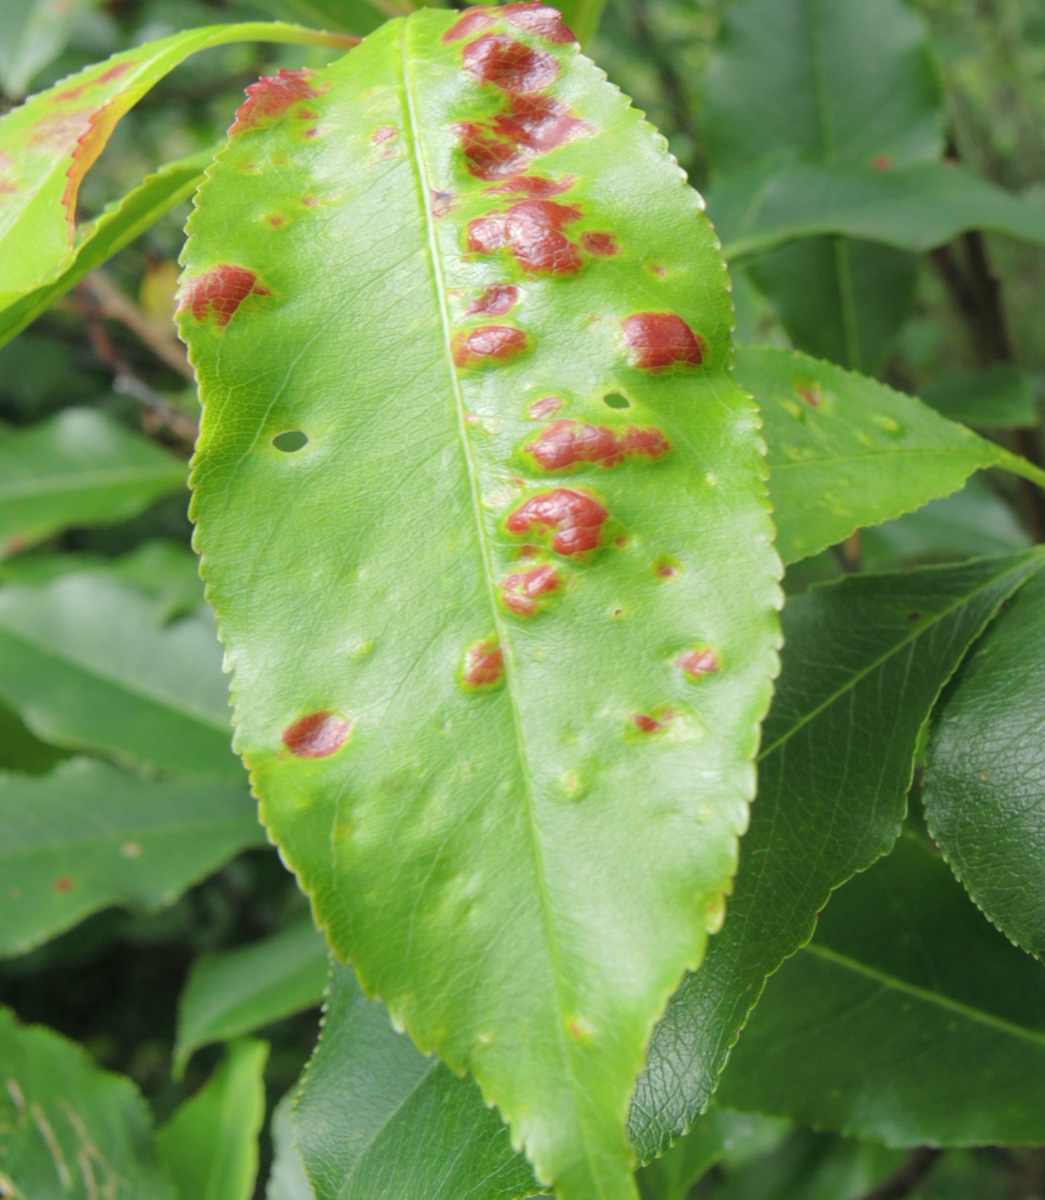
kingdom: Fungi
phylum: Ascomycota
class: Taphrinomycetes
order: Taphrinales
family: Taphrinaceae
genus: Taphrina
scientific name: Taphrina farlowii
